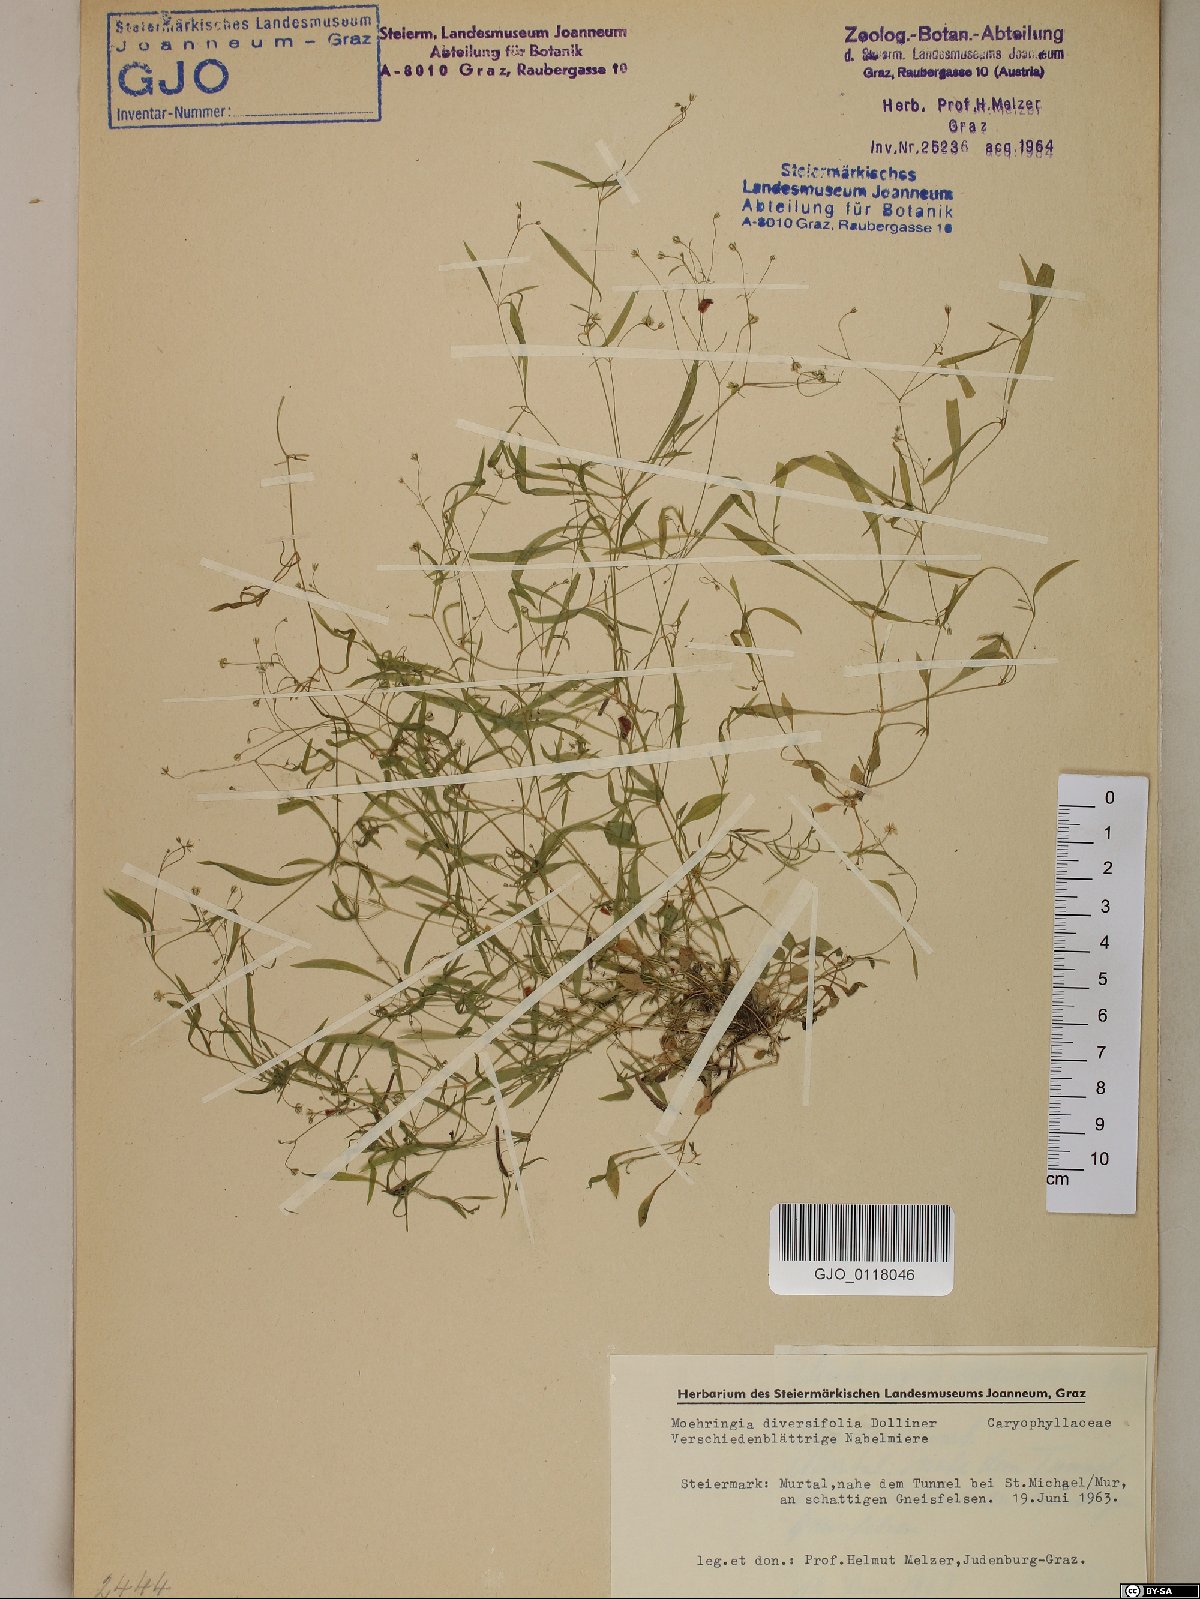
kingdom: Plantae
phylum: Tracheophyta
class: Magnoliopsida
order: Caryophyllales
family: Caryophyllaceae
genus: Moehringia
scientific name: Moehringia diversifolia
